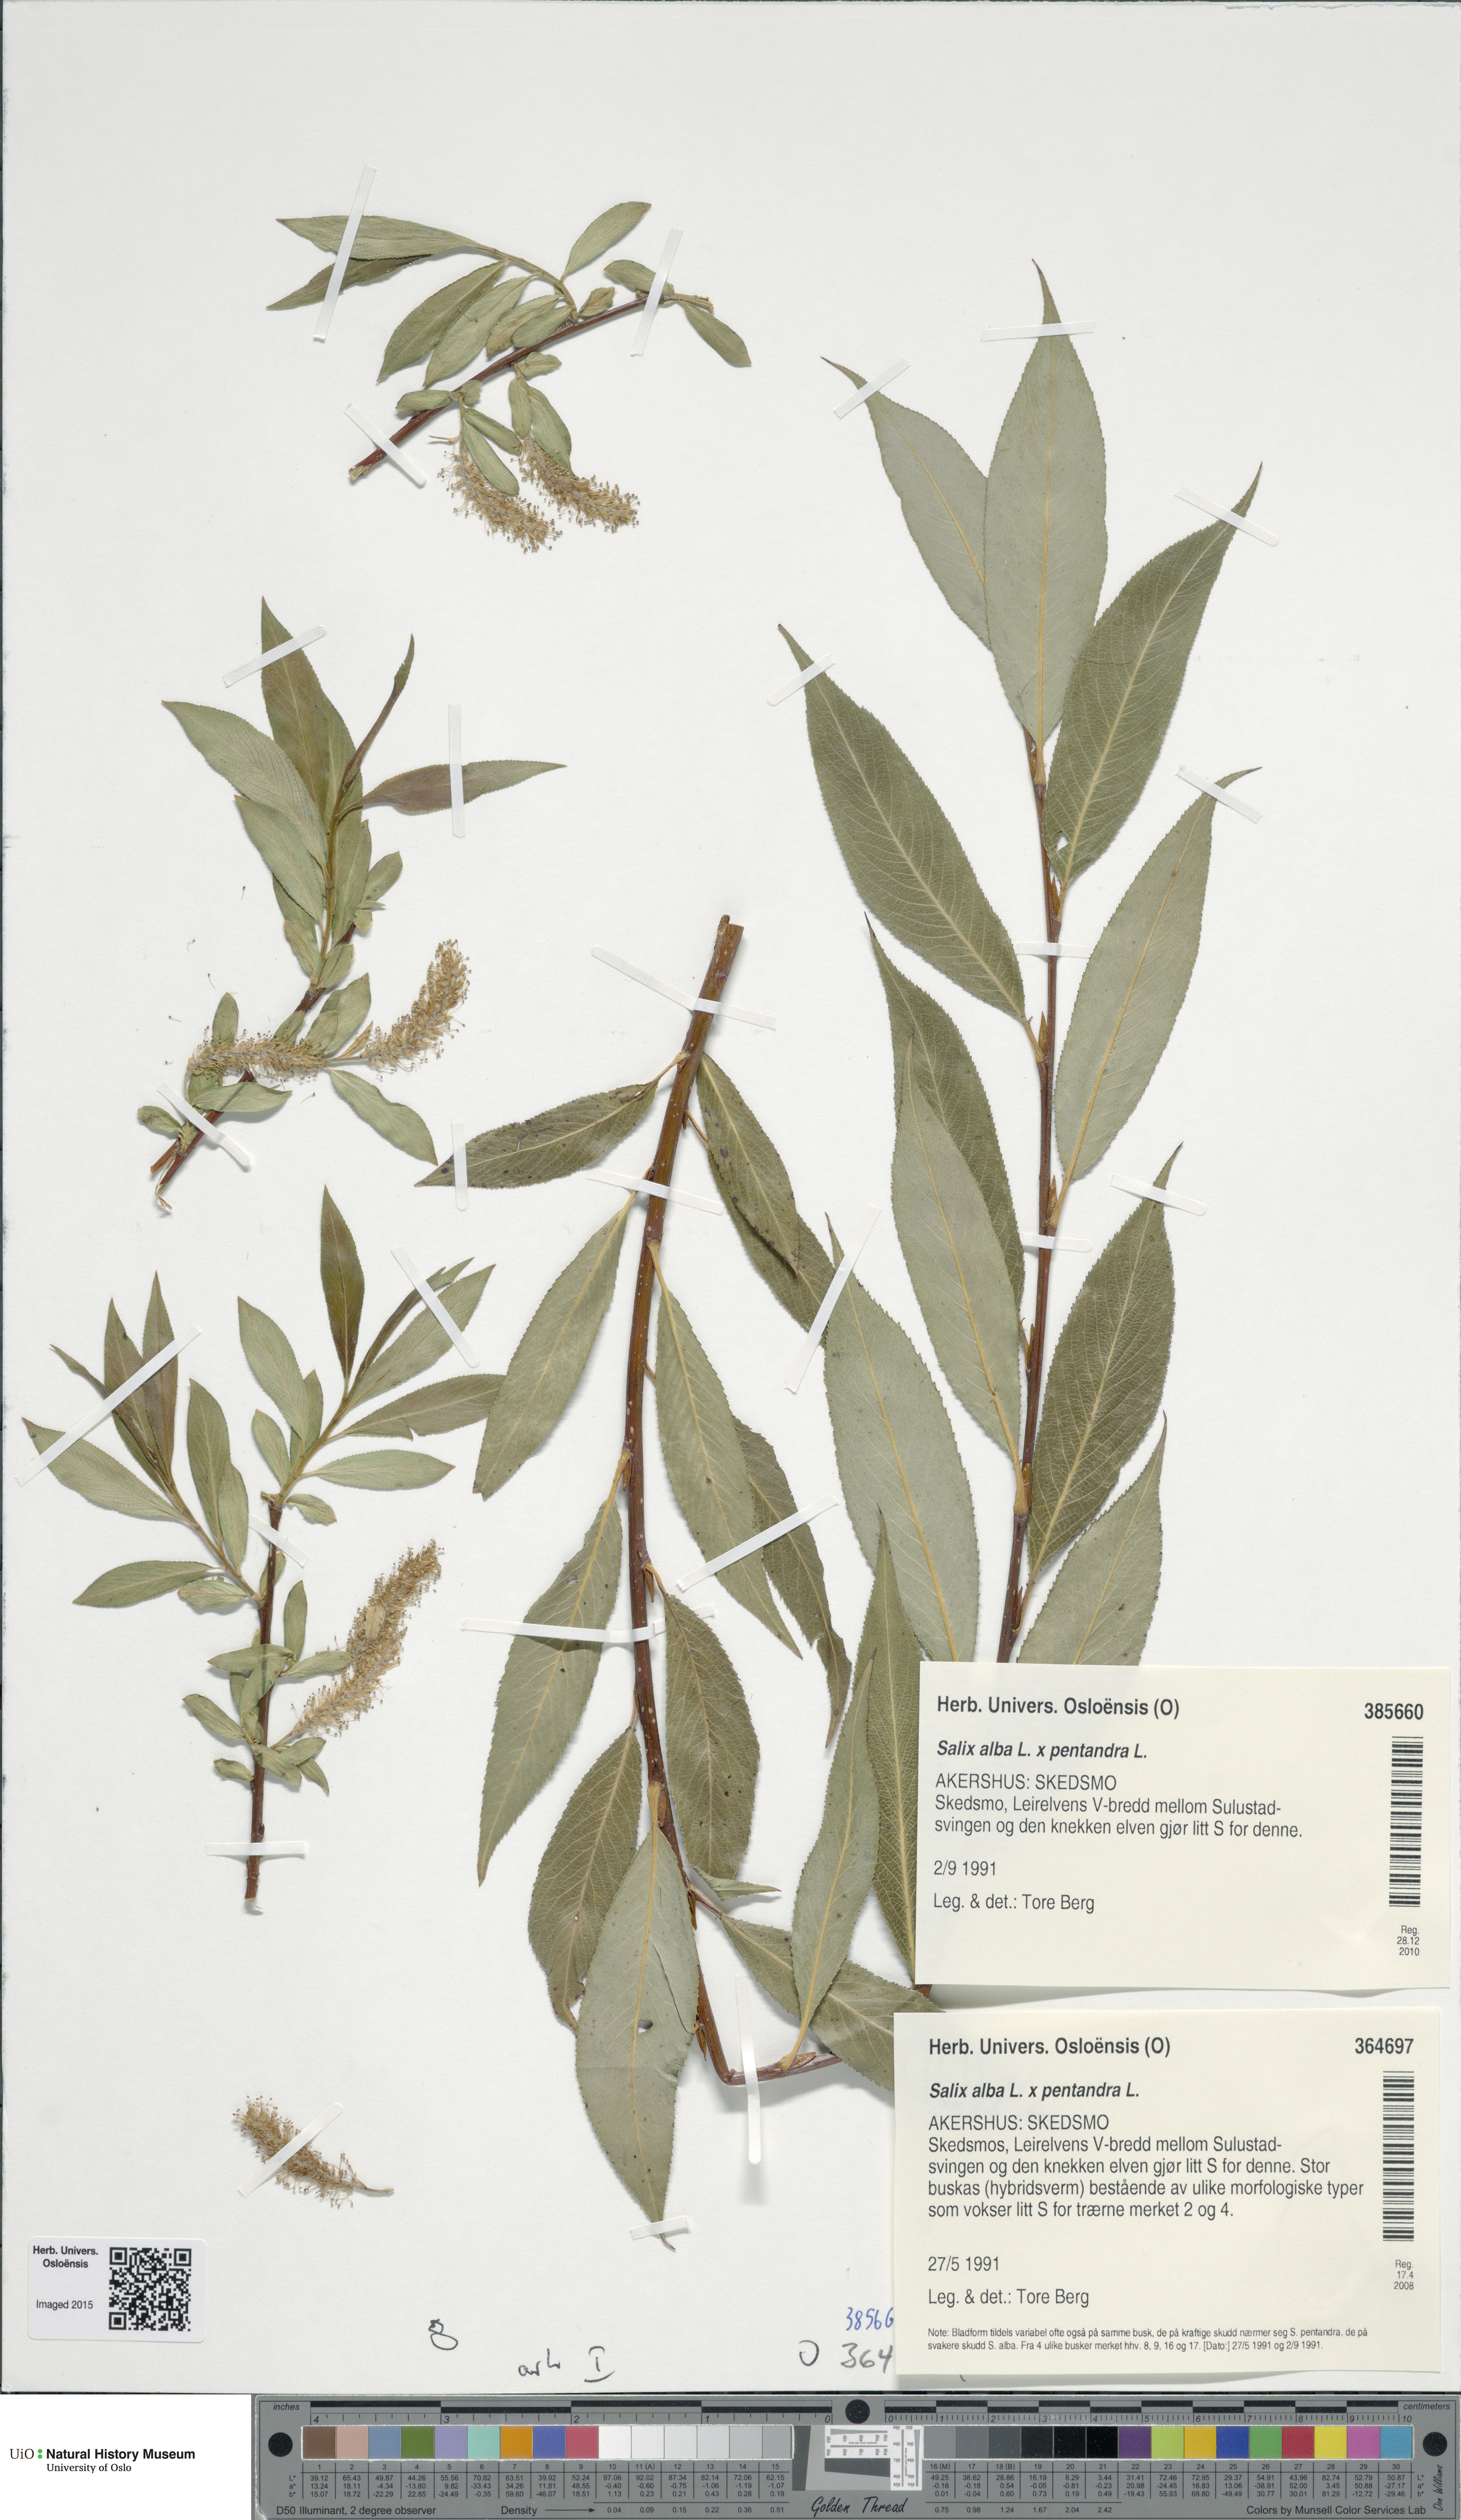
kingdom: Plantae
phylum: Tracheophyta
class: Magnoliopsida
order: Malpighiales
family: Salicaceae
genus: Salix
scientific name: Salix
